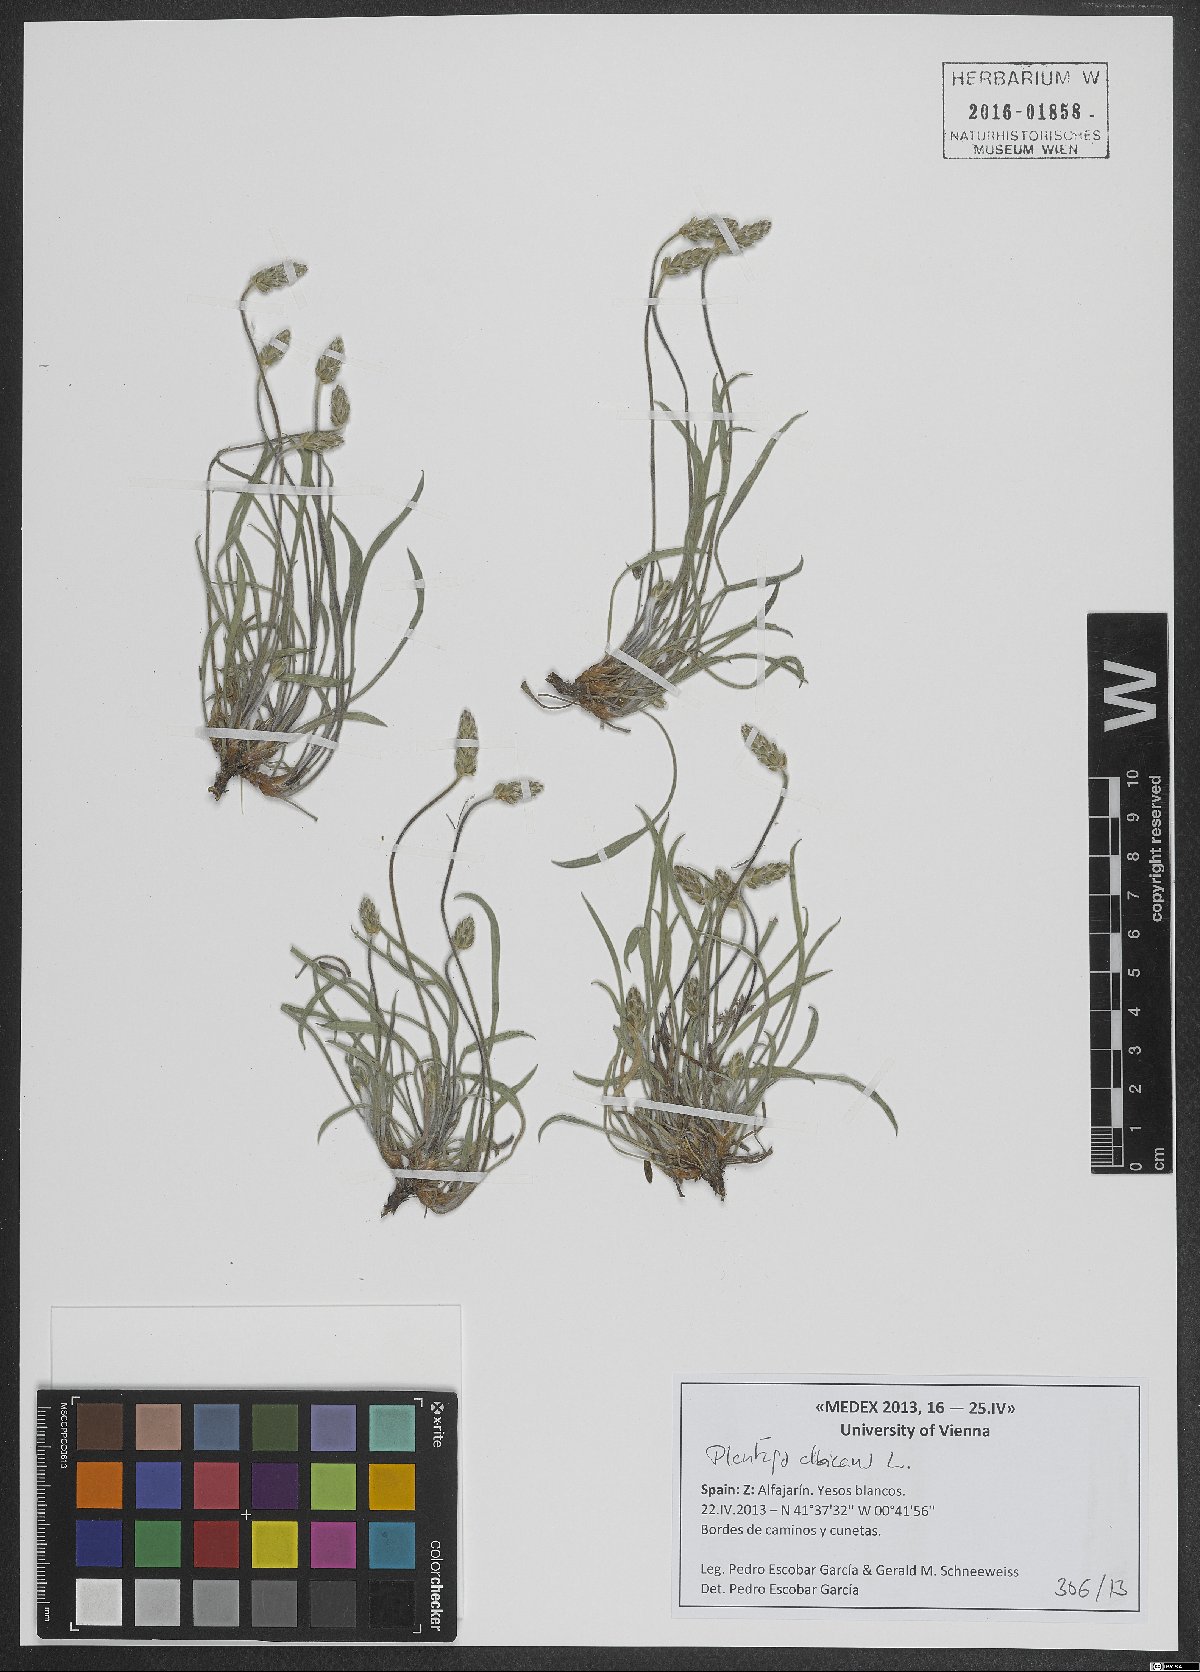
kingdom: Plantae
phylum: Tracheophyta
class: Magnoliopsida
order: Lamiales
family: Plantaginaceae
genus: Plantago
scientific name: Plantago albicans
